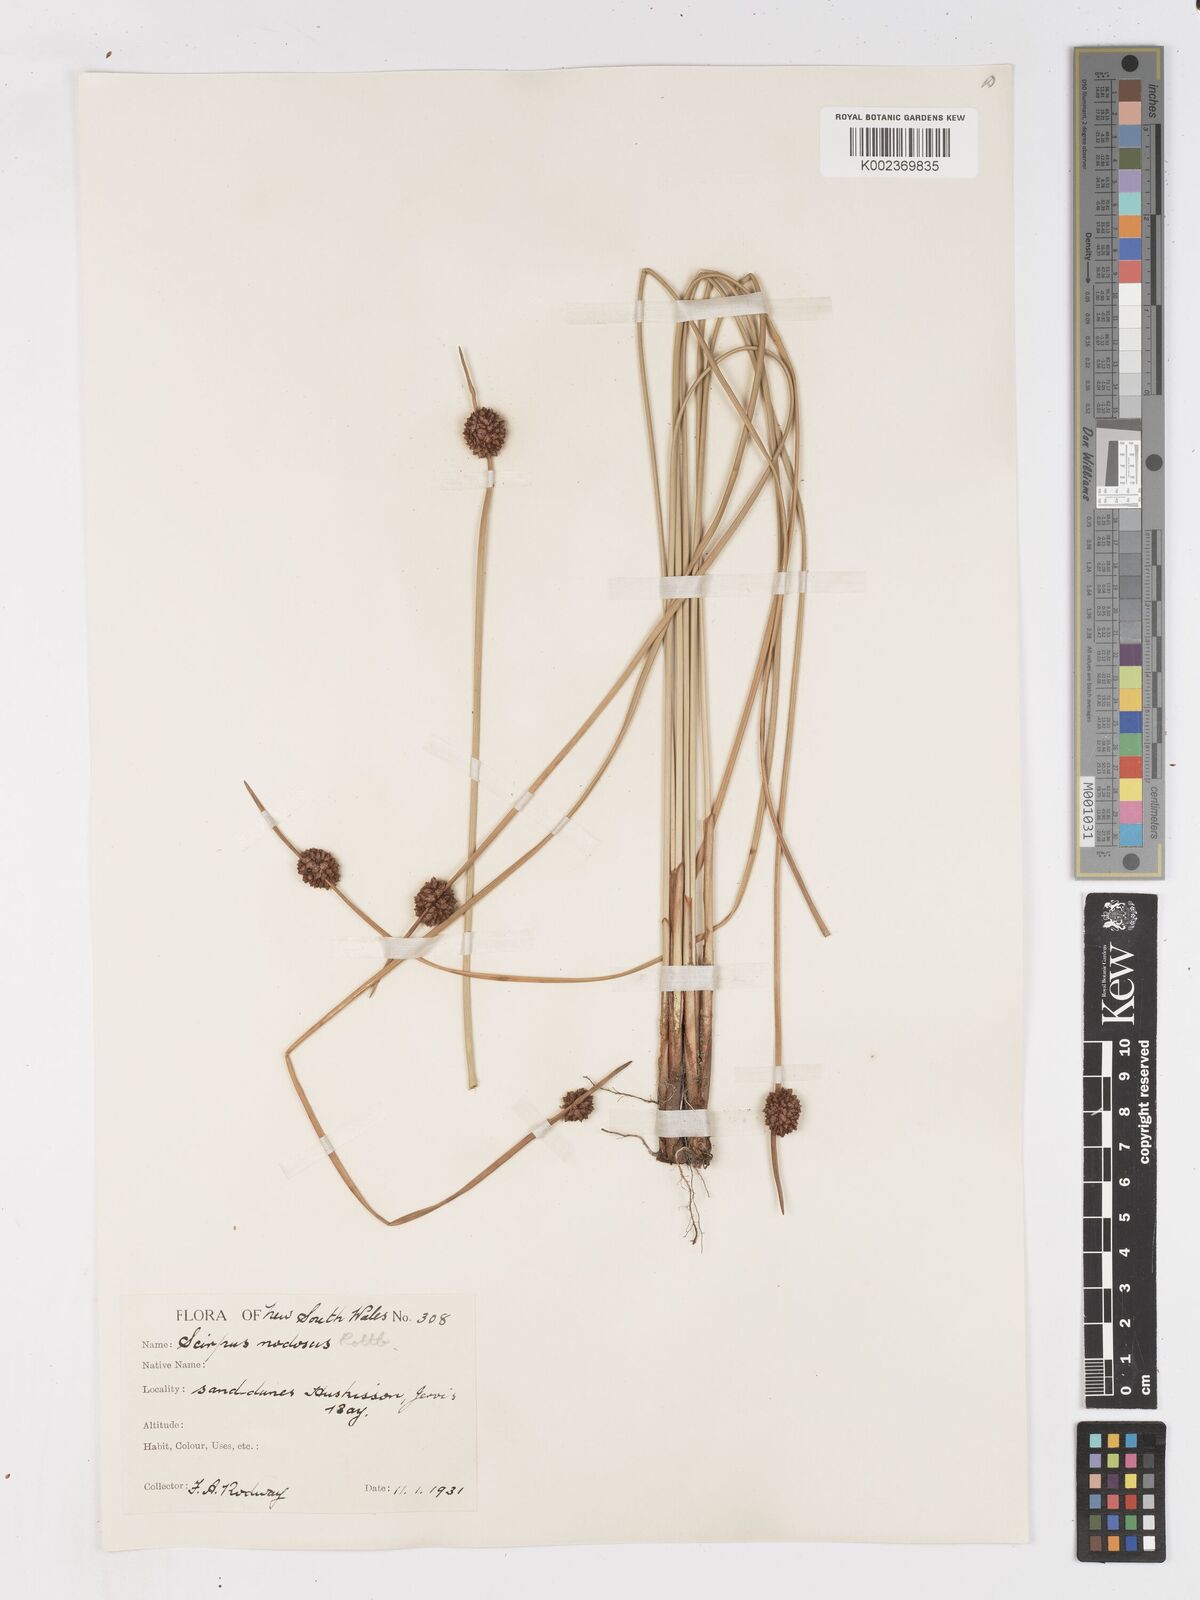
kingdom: Plantae
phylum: Tracheophyta
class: Liliopsida
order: Poales
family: Cyperaceae
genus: Ficinia
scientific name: Ficinia nodosa
